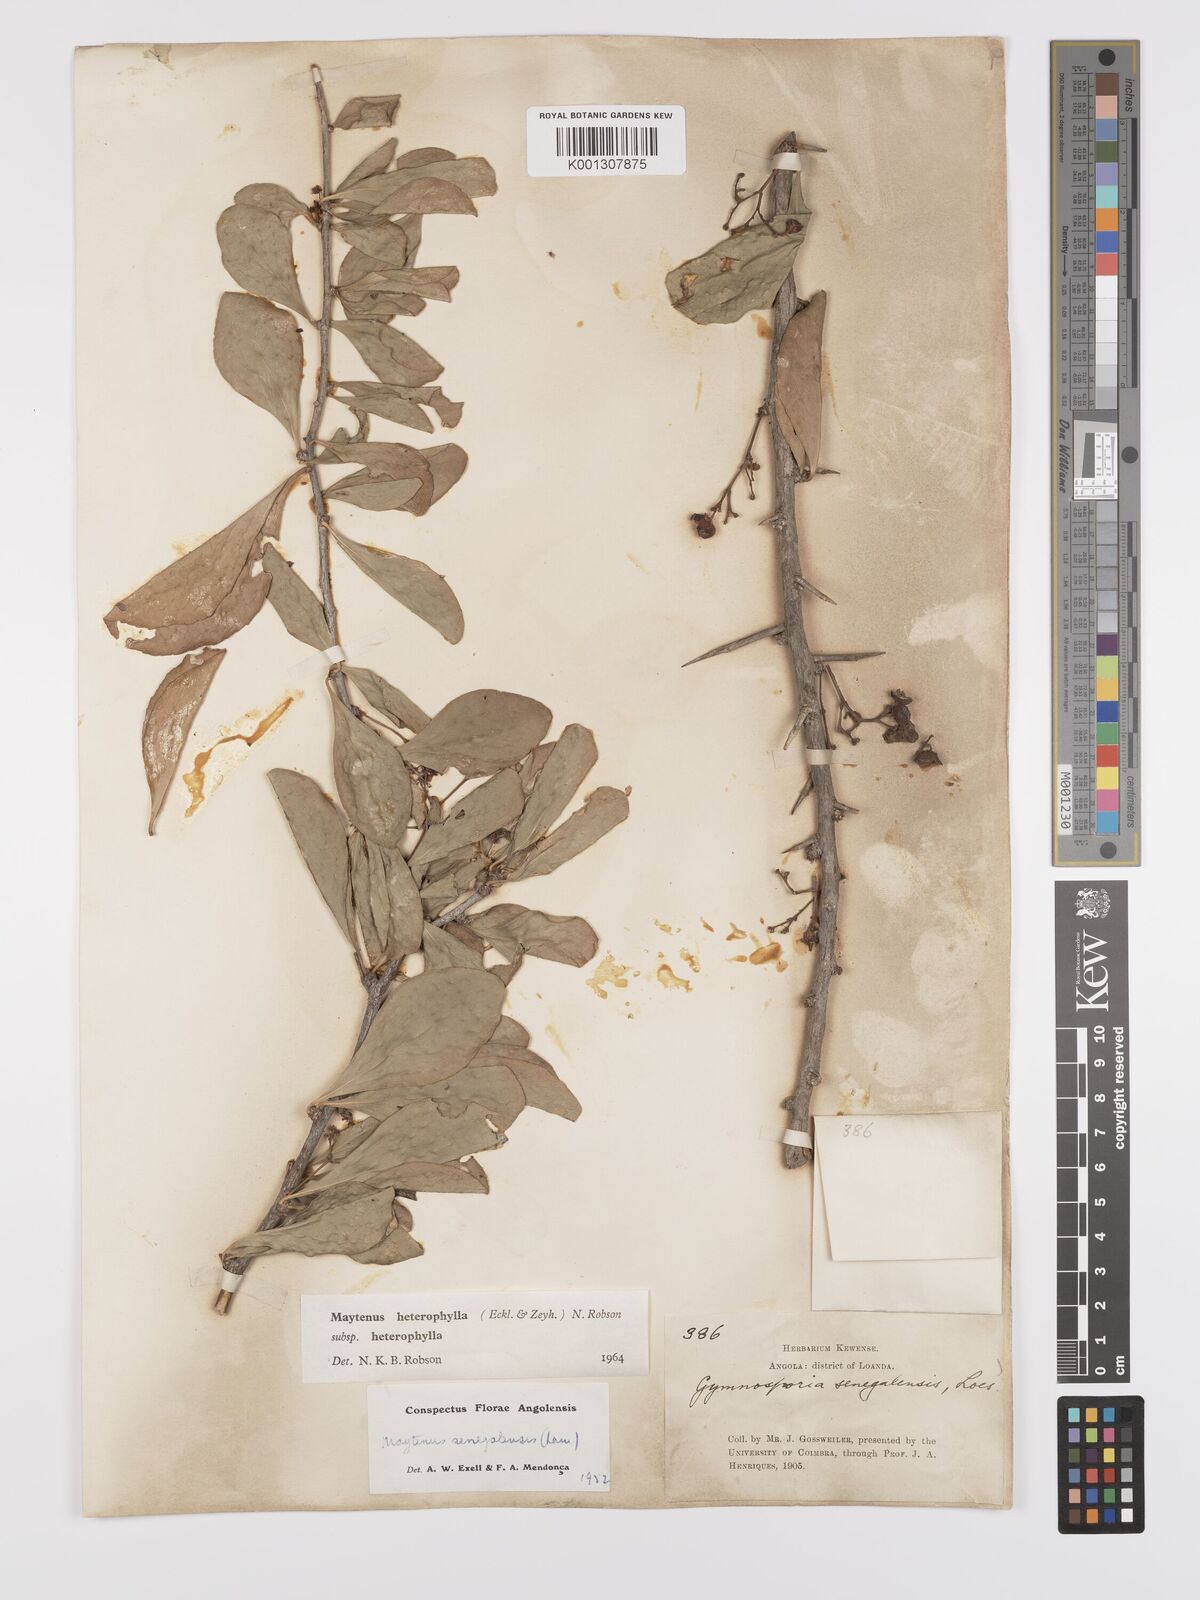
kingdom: Plantae
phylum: Tracheophyta
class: Magnoliopsida
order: Celastrales
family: Celastraceae
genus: Gymnosporia
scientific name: Gymnosporia heterophylla
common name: Angle-stem spikethorn
